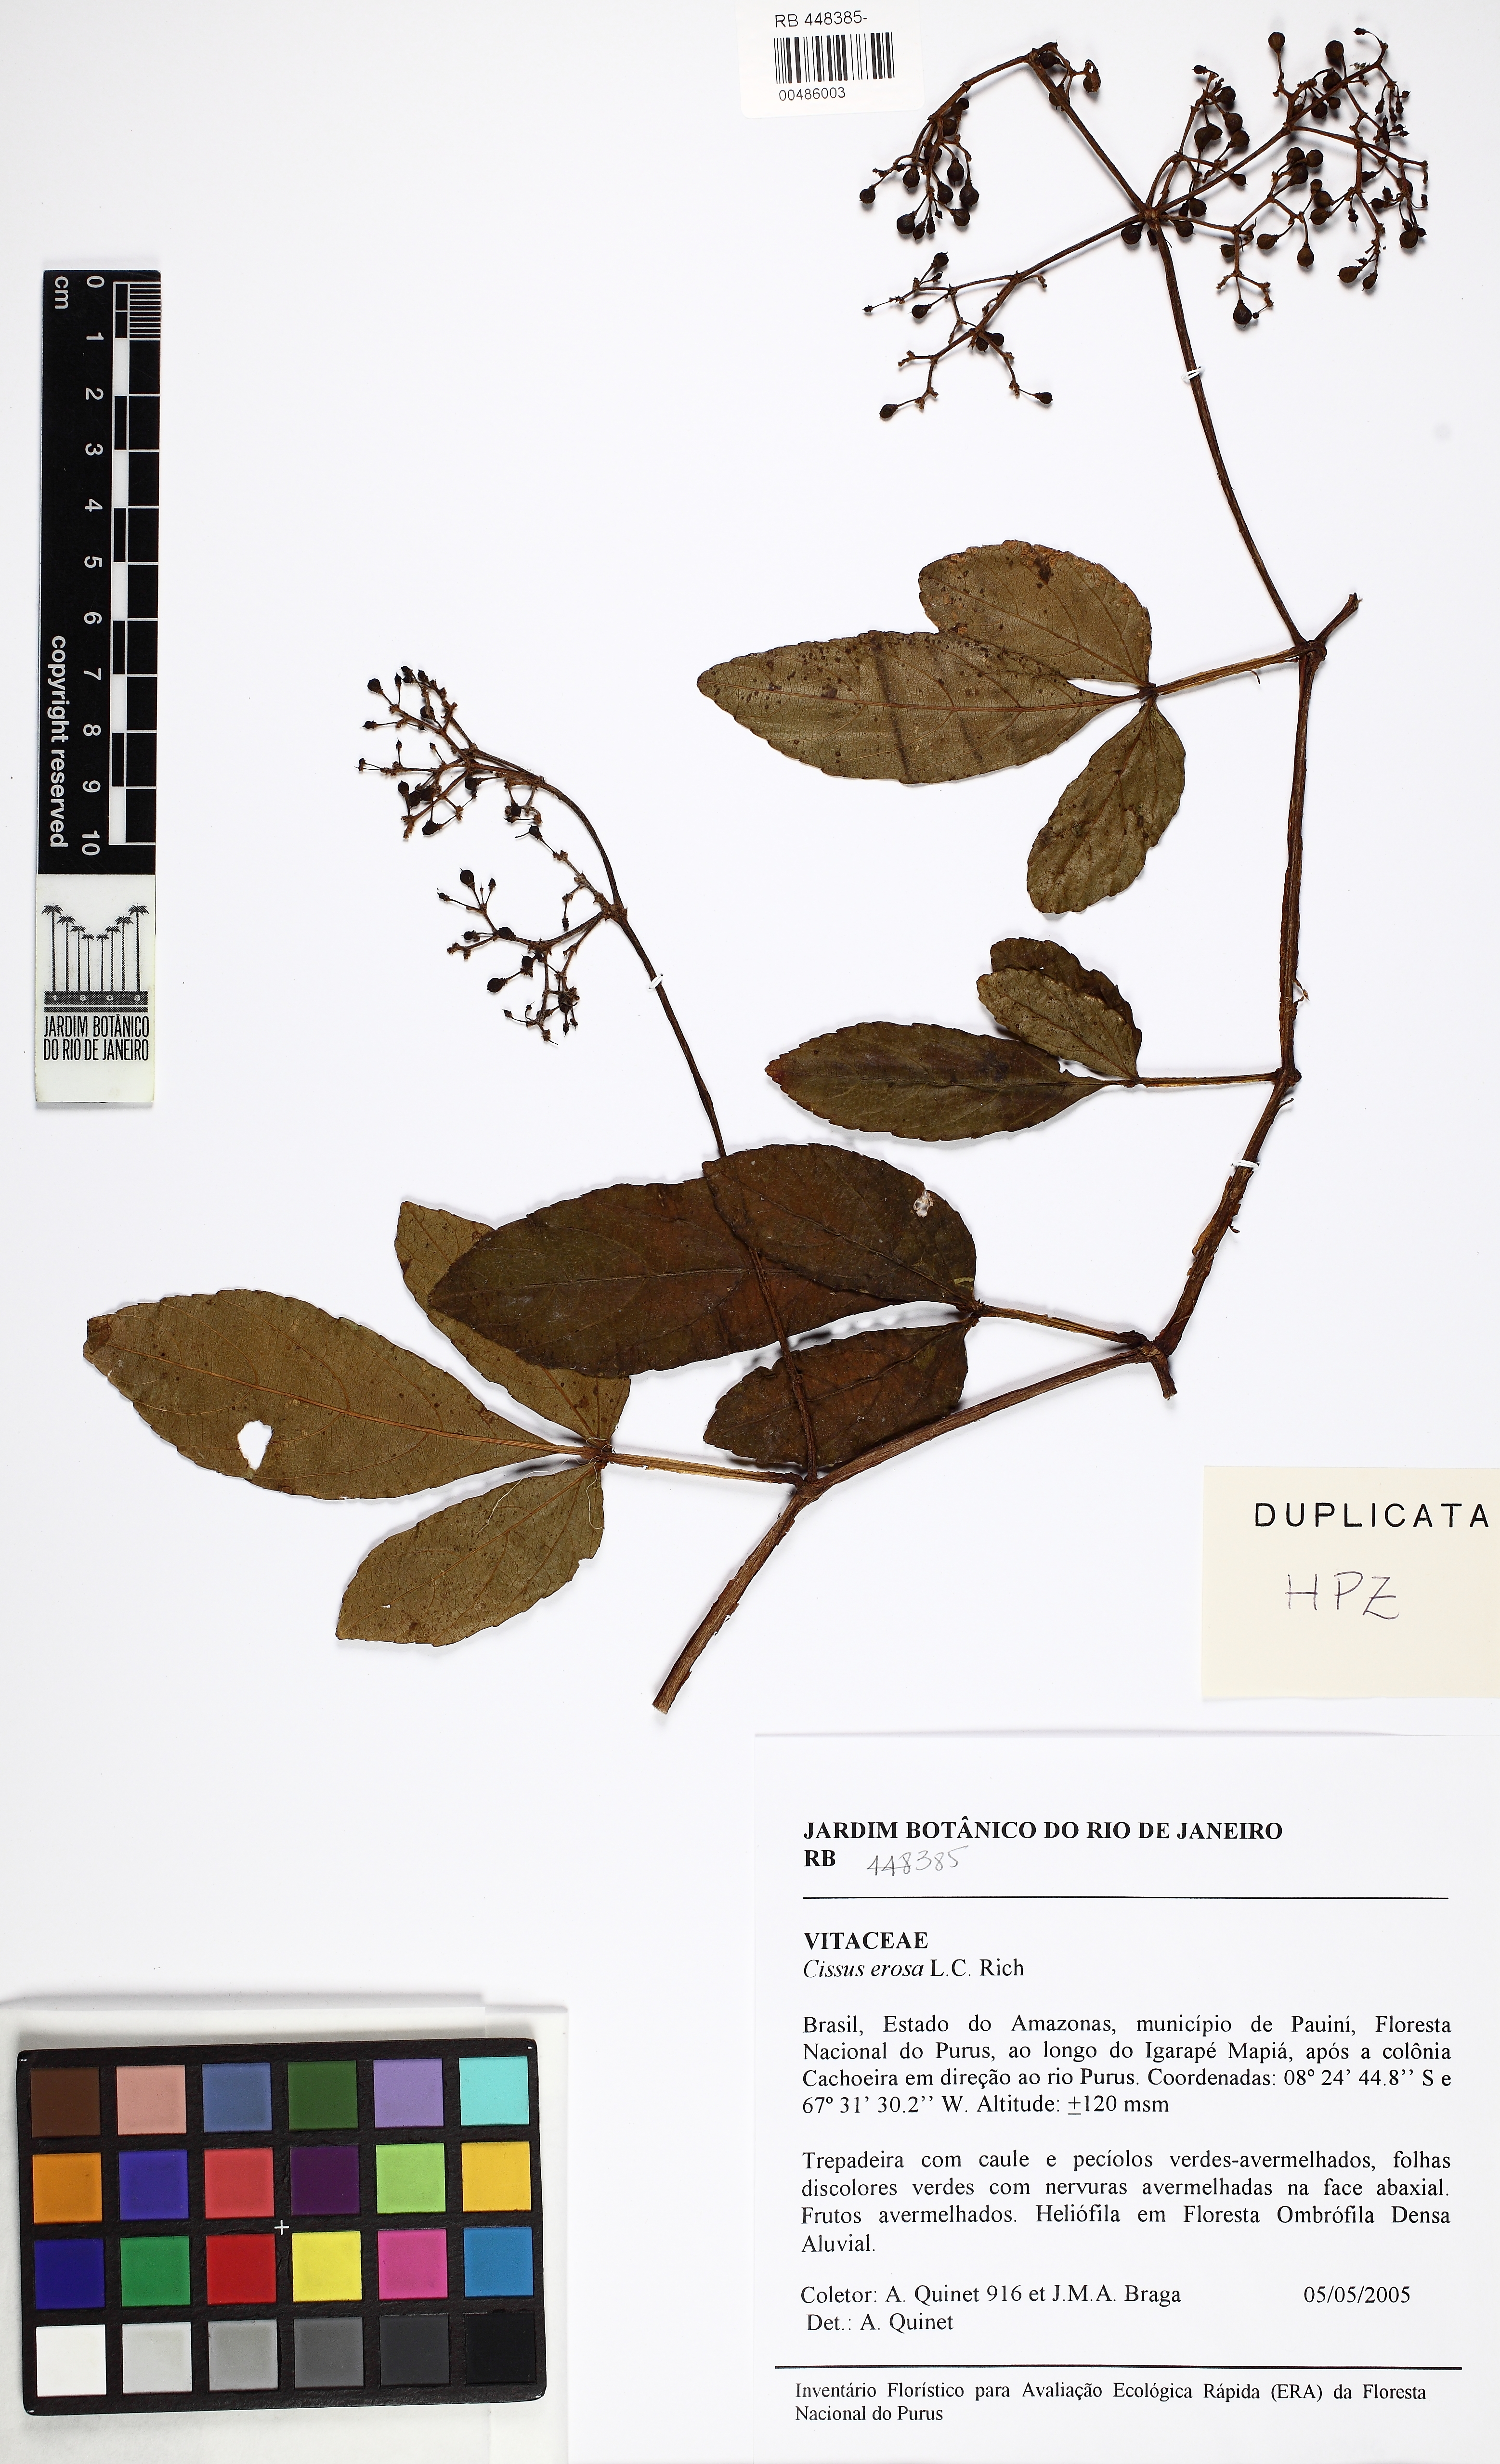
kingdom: Plantae
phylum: Tracheophyta
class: Magnoliopsida
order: Vitales
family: Vitaceae
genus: Cissus
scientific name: Cissus erosa
